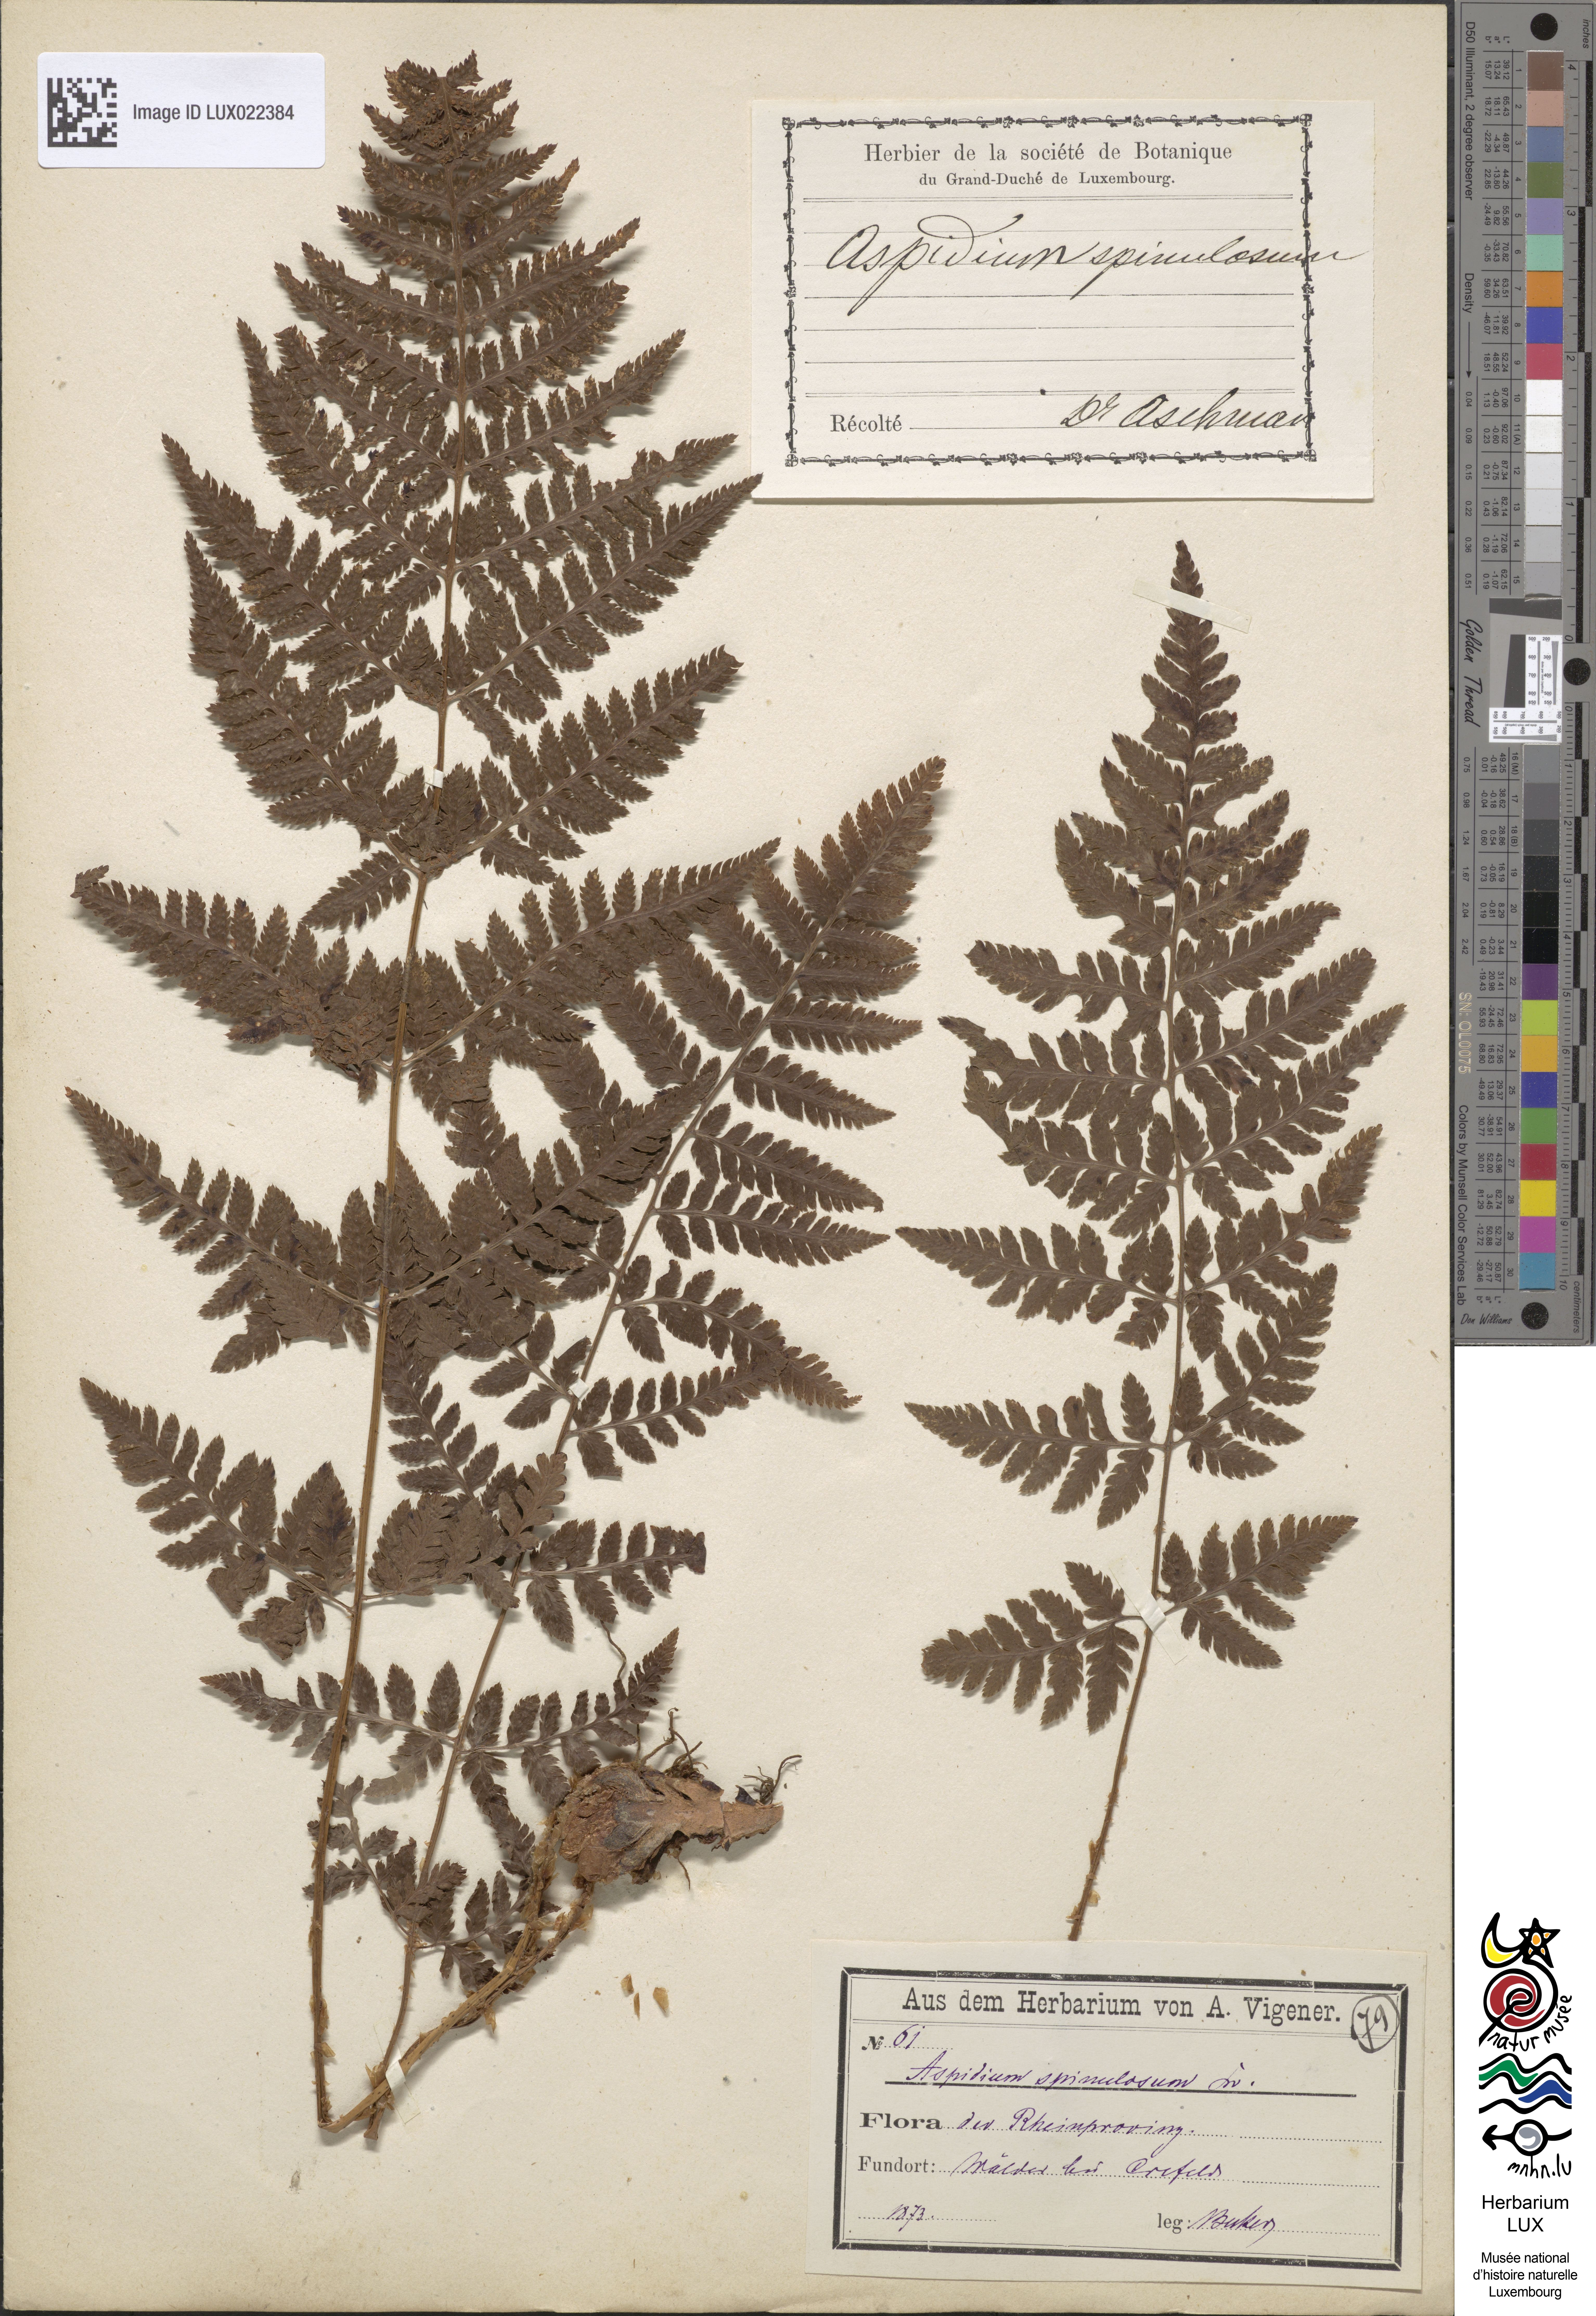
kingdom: Plantae
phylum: Tracheophyta
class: Polypodiopsida
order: Polypodiales
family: Dryopteridaceae
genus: Dryopteris
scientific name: Dryopteris carthusiana
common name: Narrow buckler-fern
